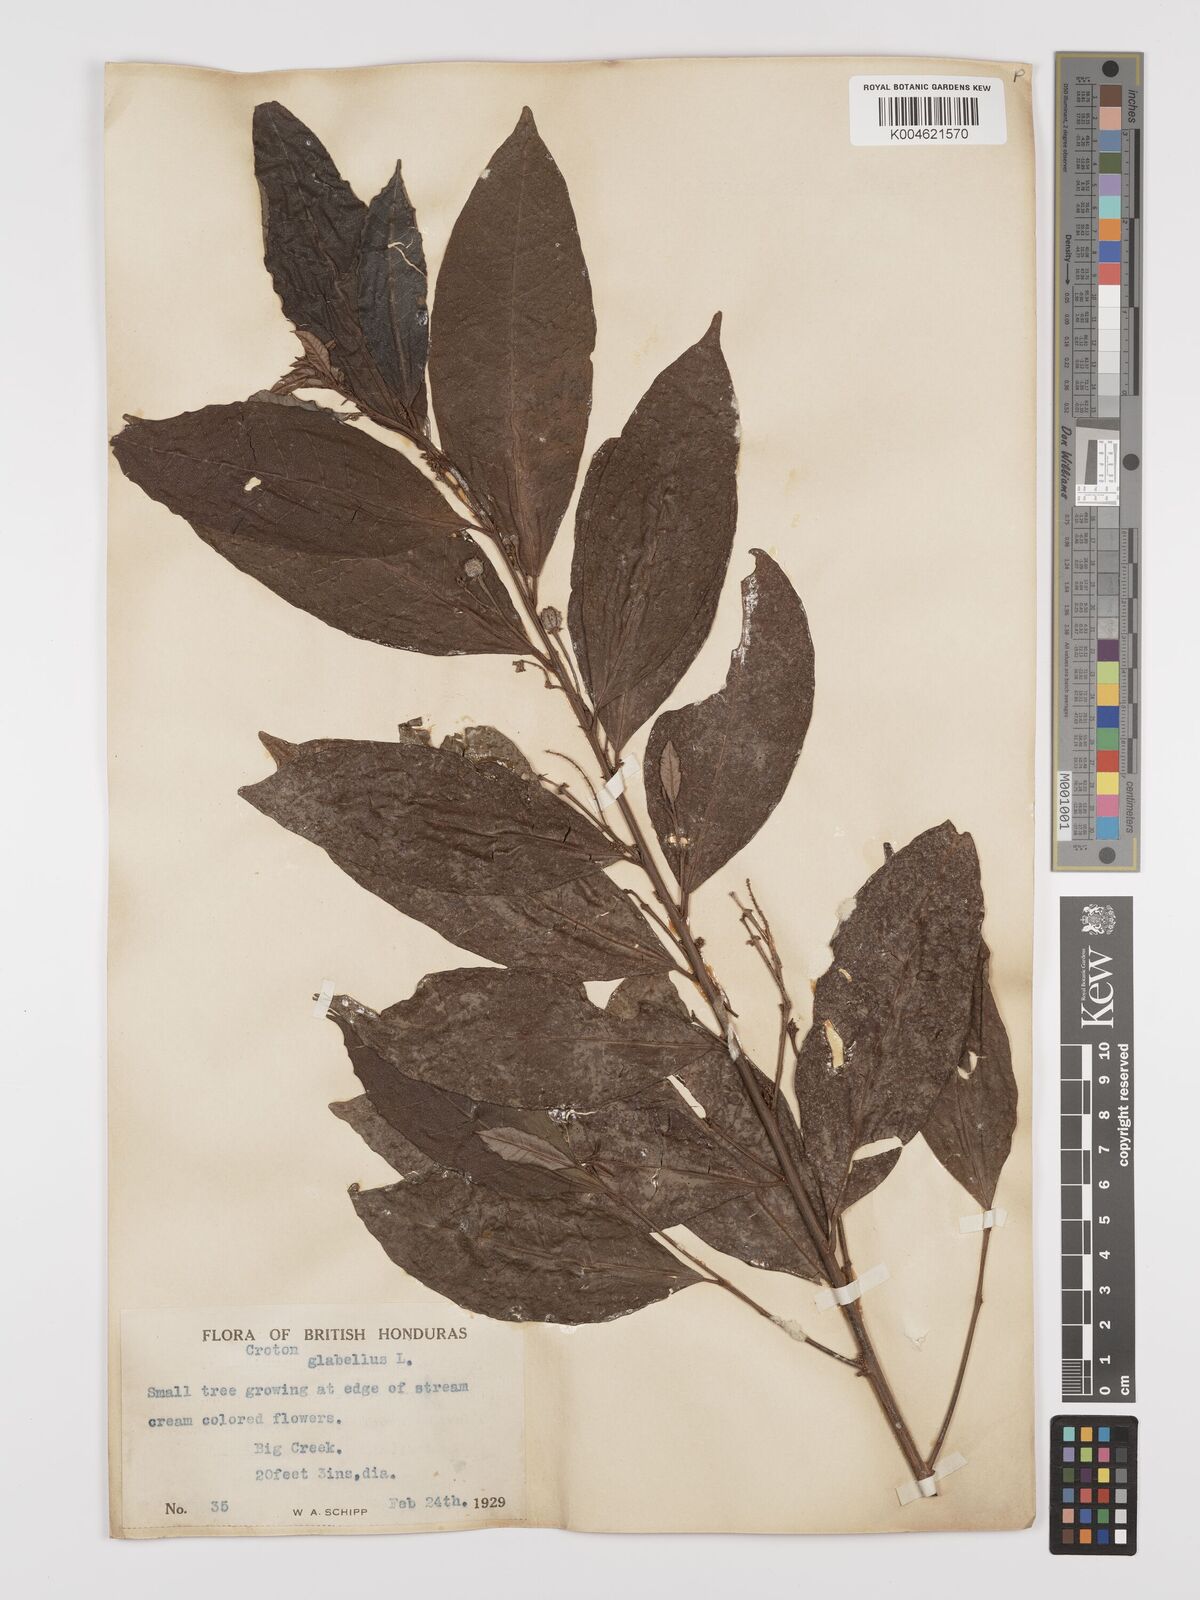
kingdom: Plantae
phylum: Tracheophyta
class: Magnoliopsida
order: Malpighiales
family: Euphorbiaceae
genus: Croton
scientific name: Croton glabellus
